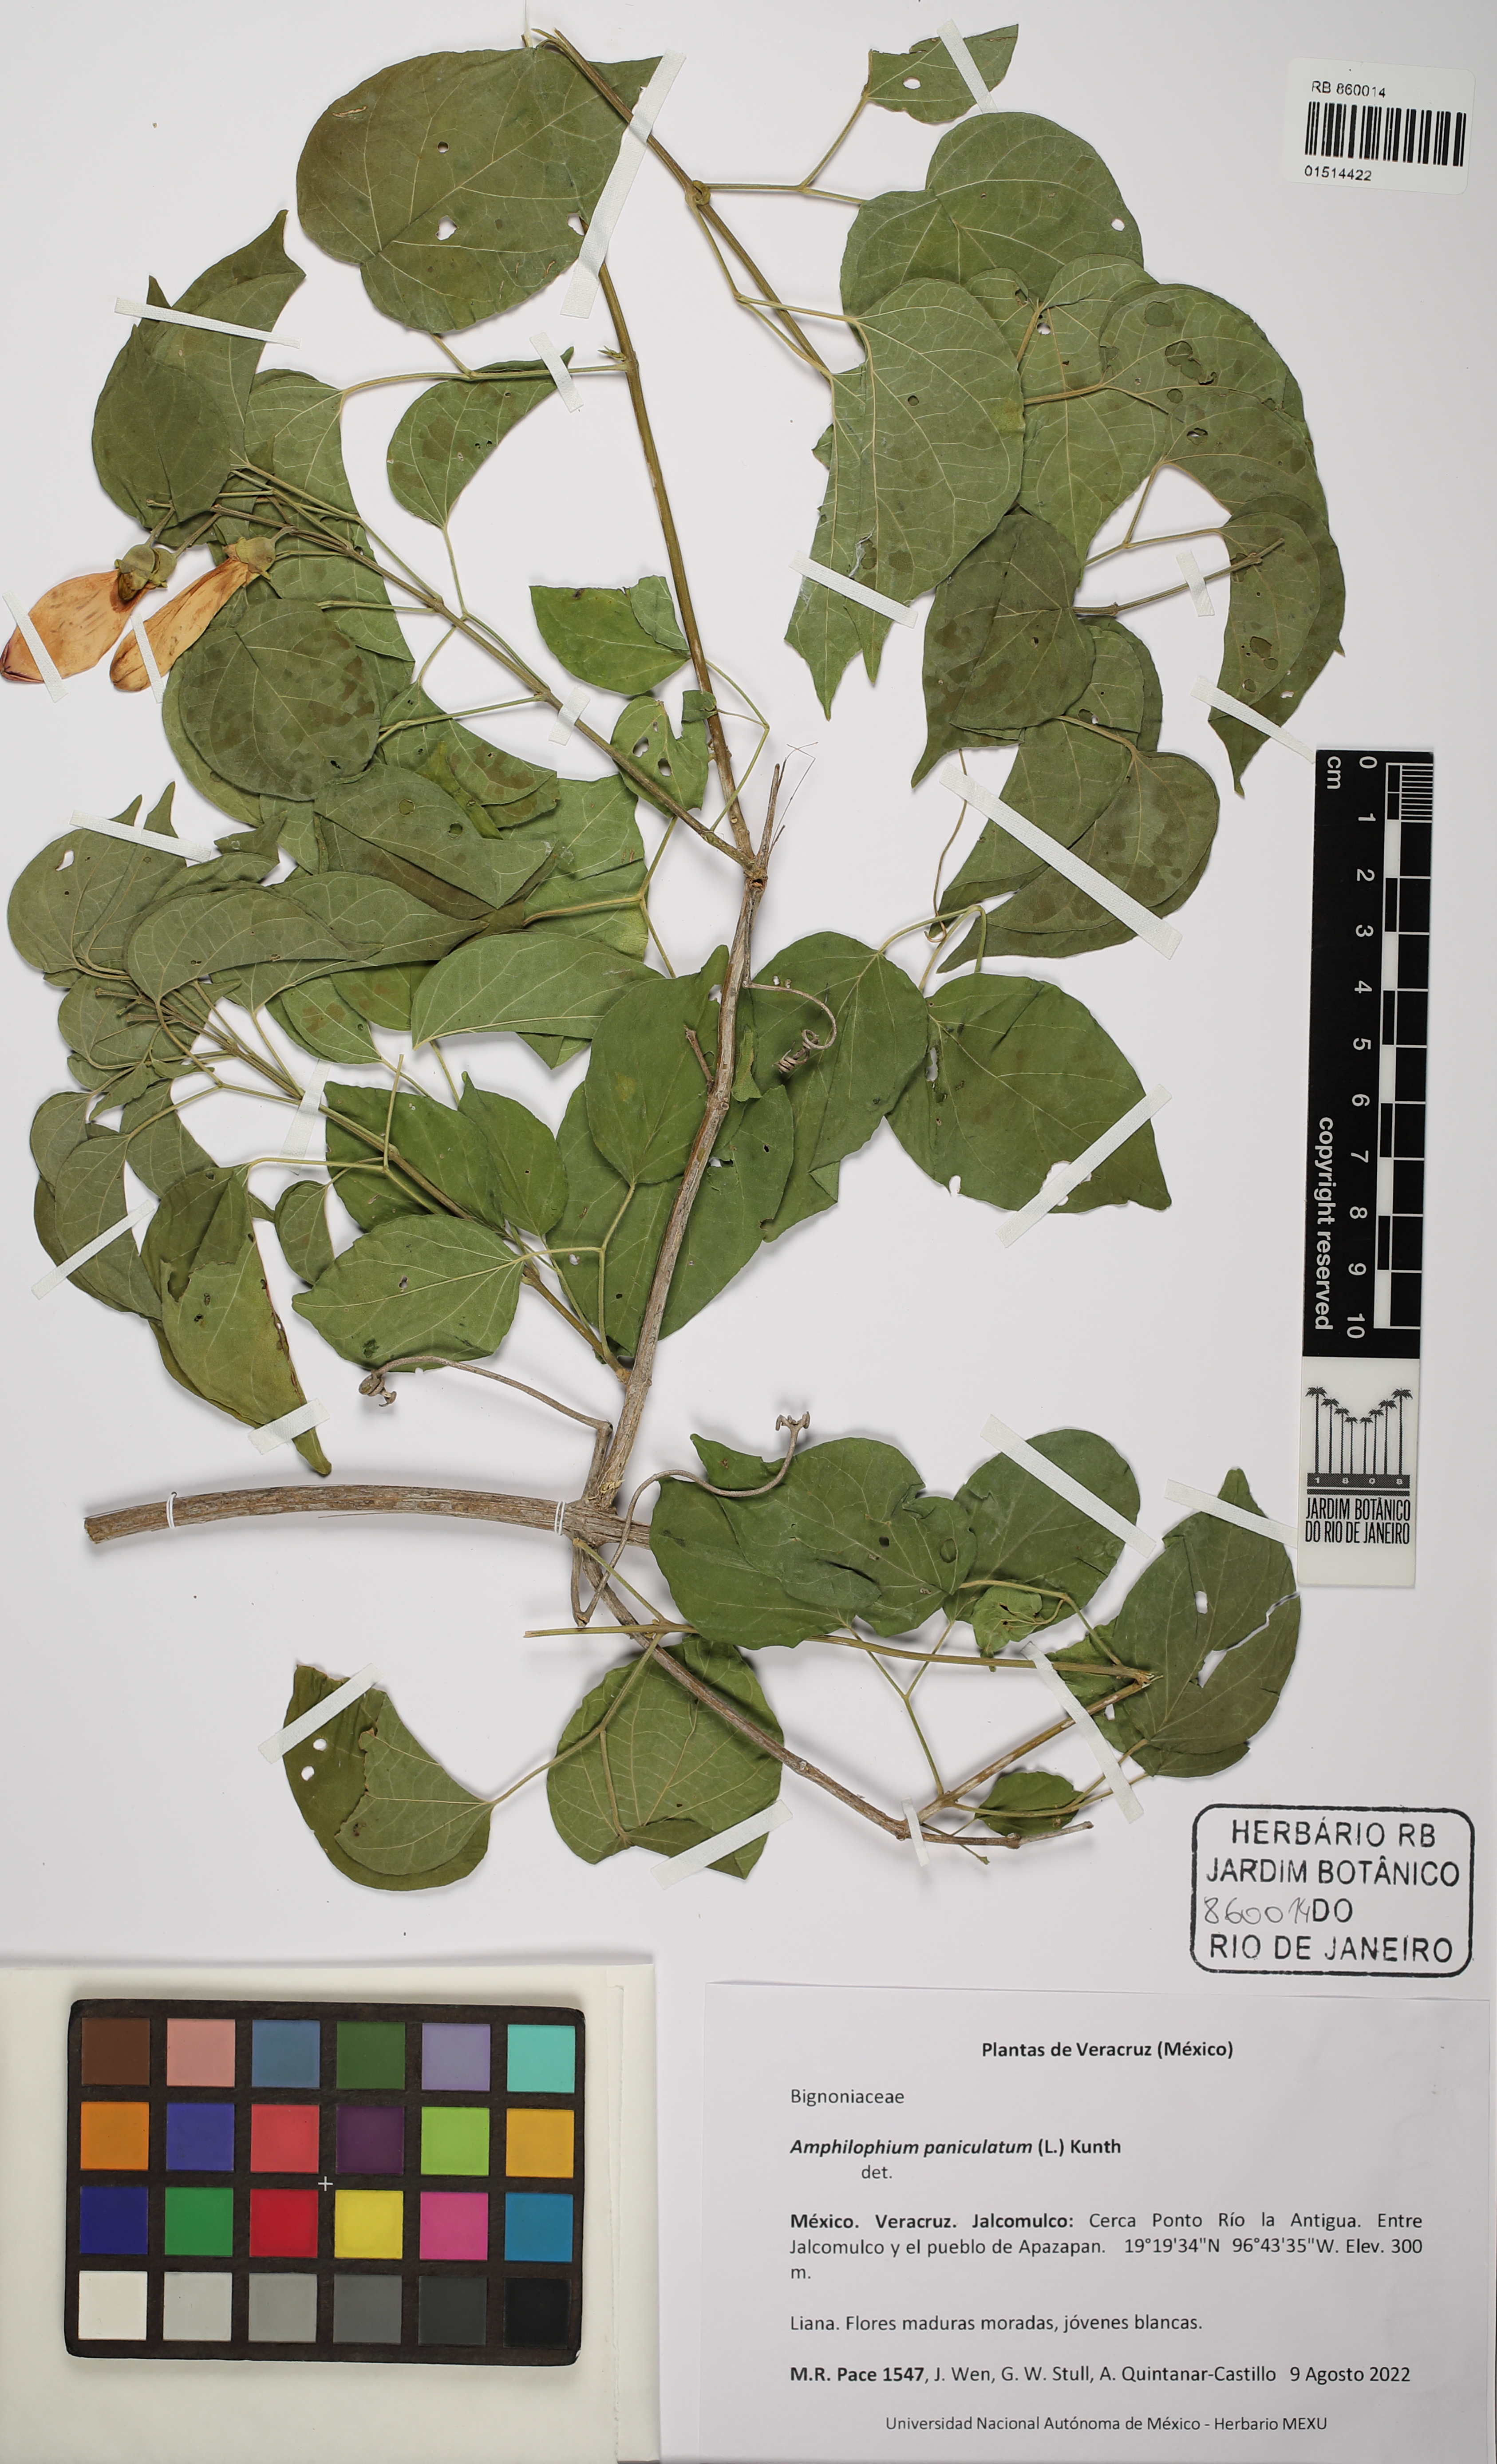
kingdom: Plantae
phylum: Tracheophyta
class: Magnoliopsida
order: Lamiales
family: Bignoniaceae
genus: Amphilophium
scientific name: Amphilophium paniculatum
